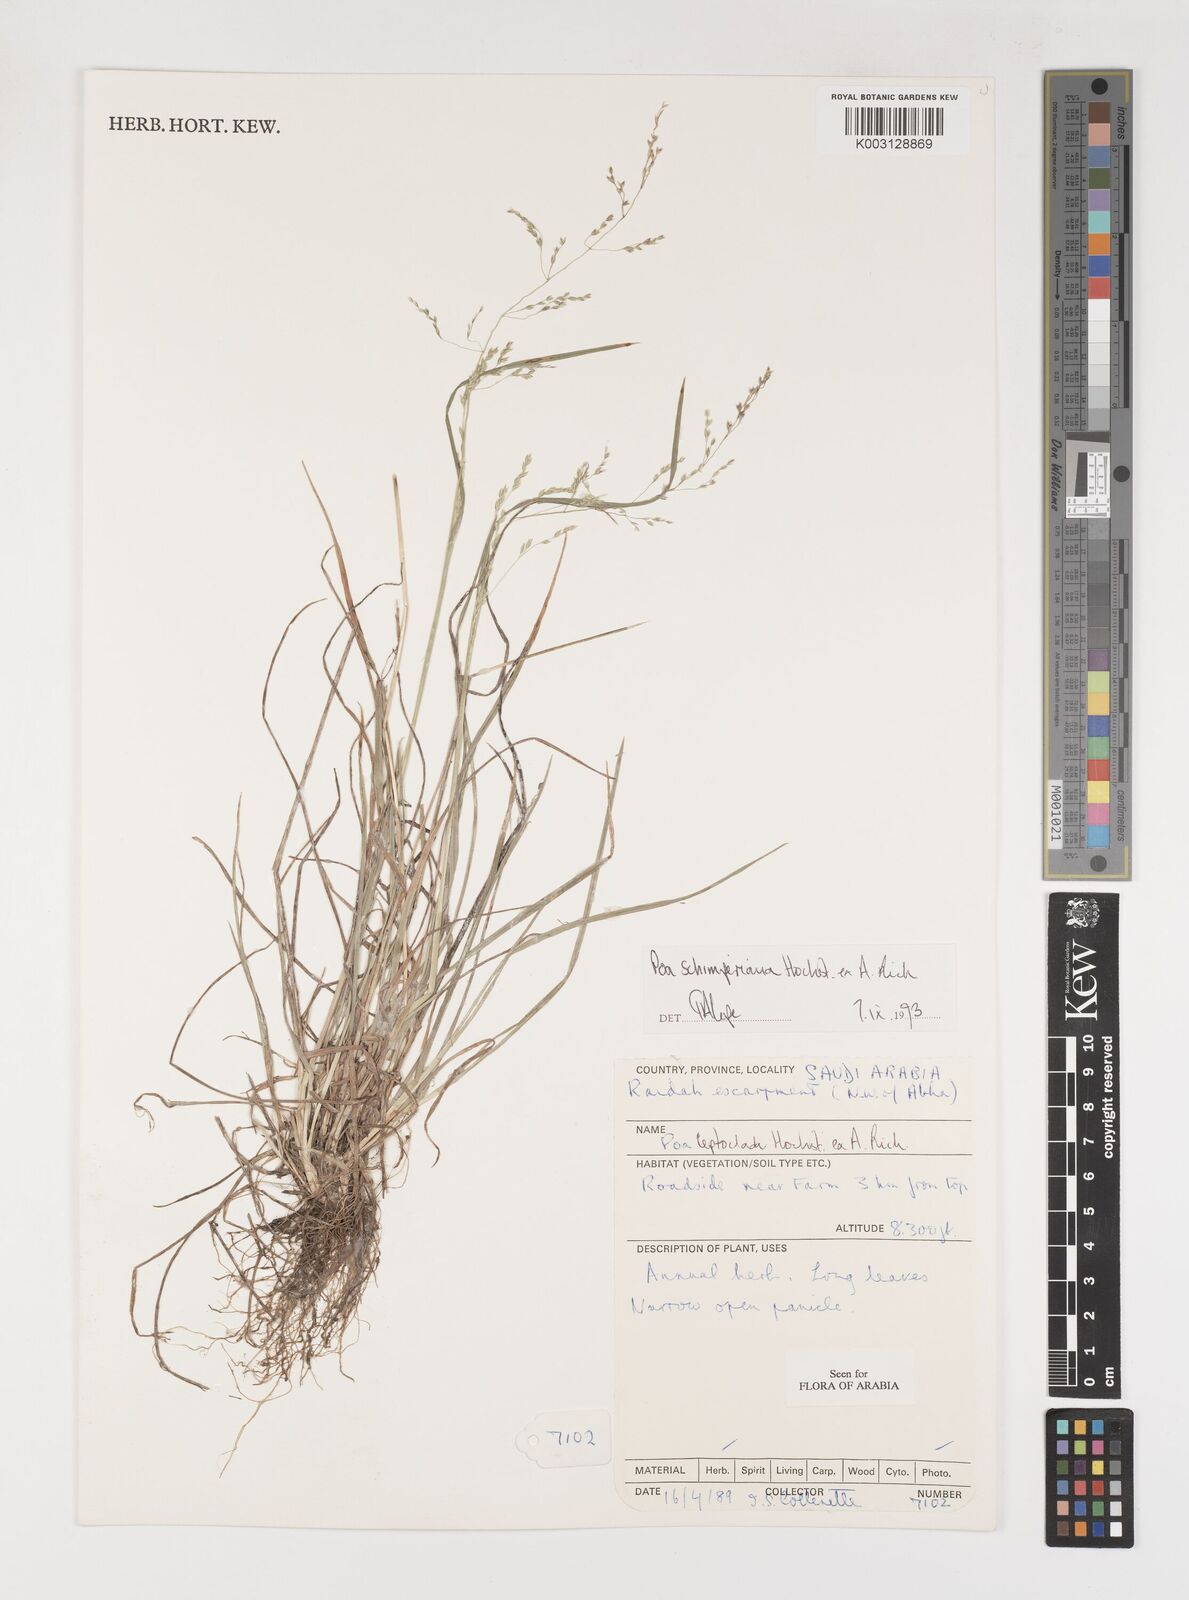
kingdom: Plantae
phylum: Tracheophyta
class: Liliopsida
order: Poales
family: Poaceae
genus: Poa
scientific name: Poa schimperiana
